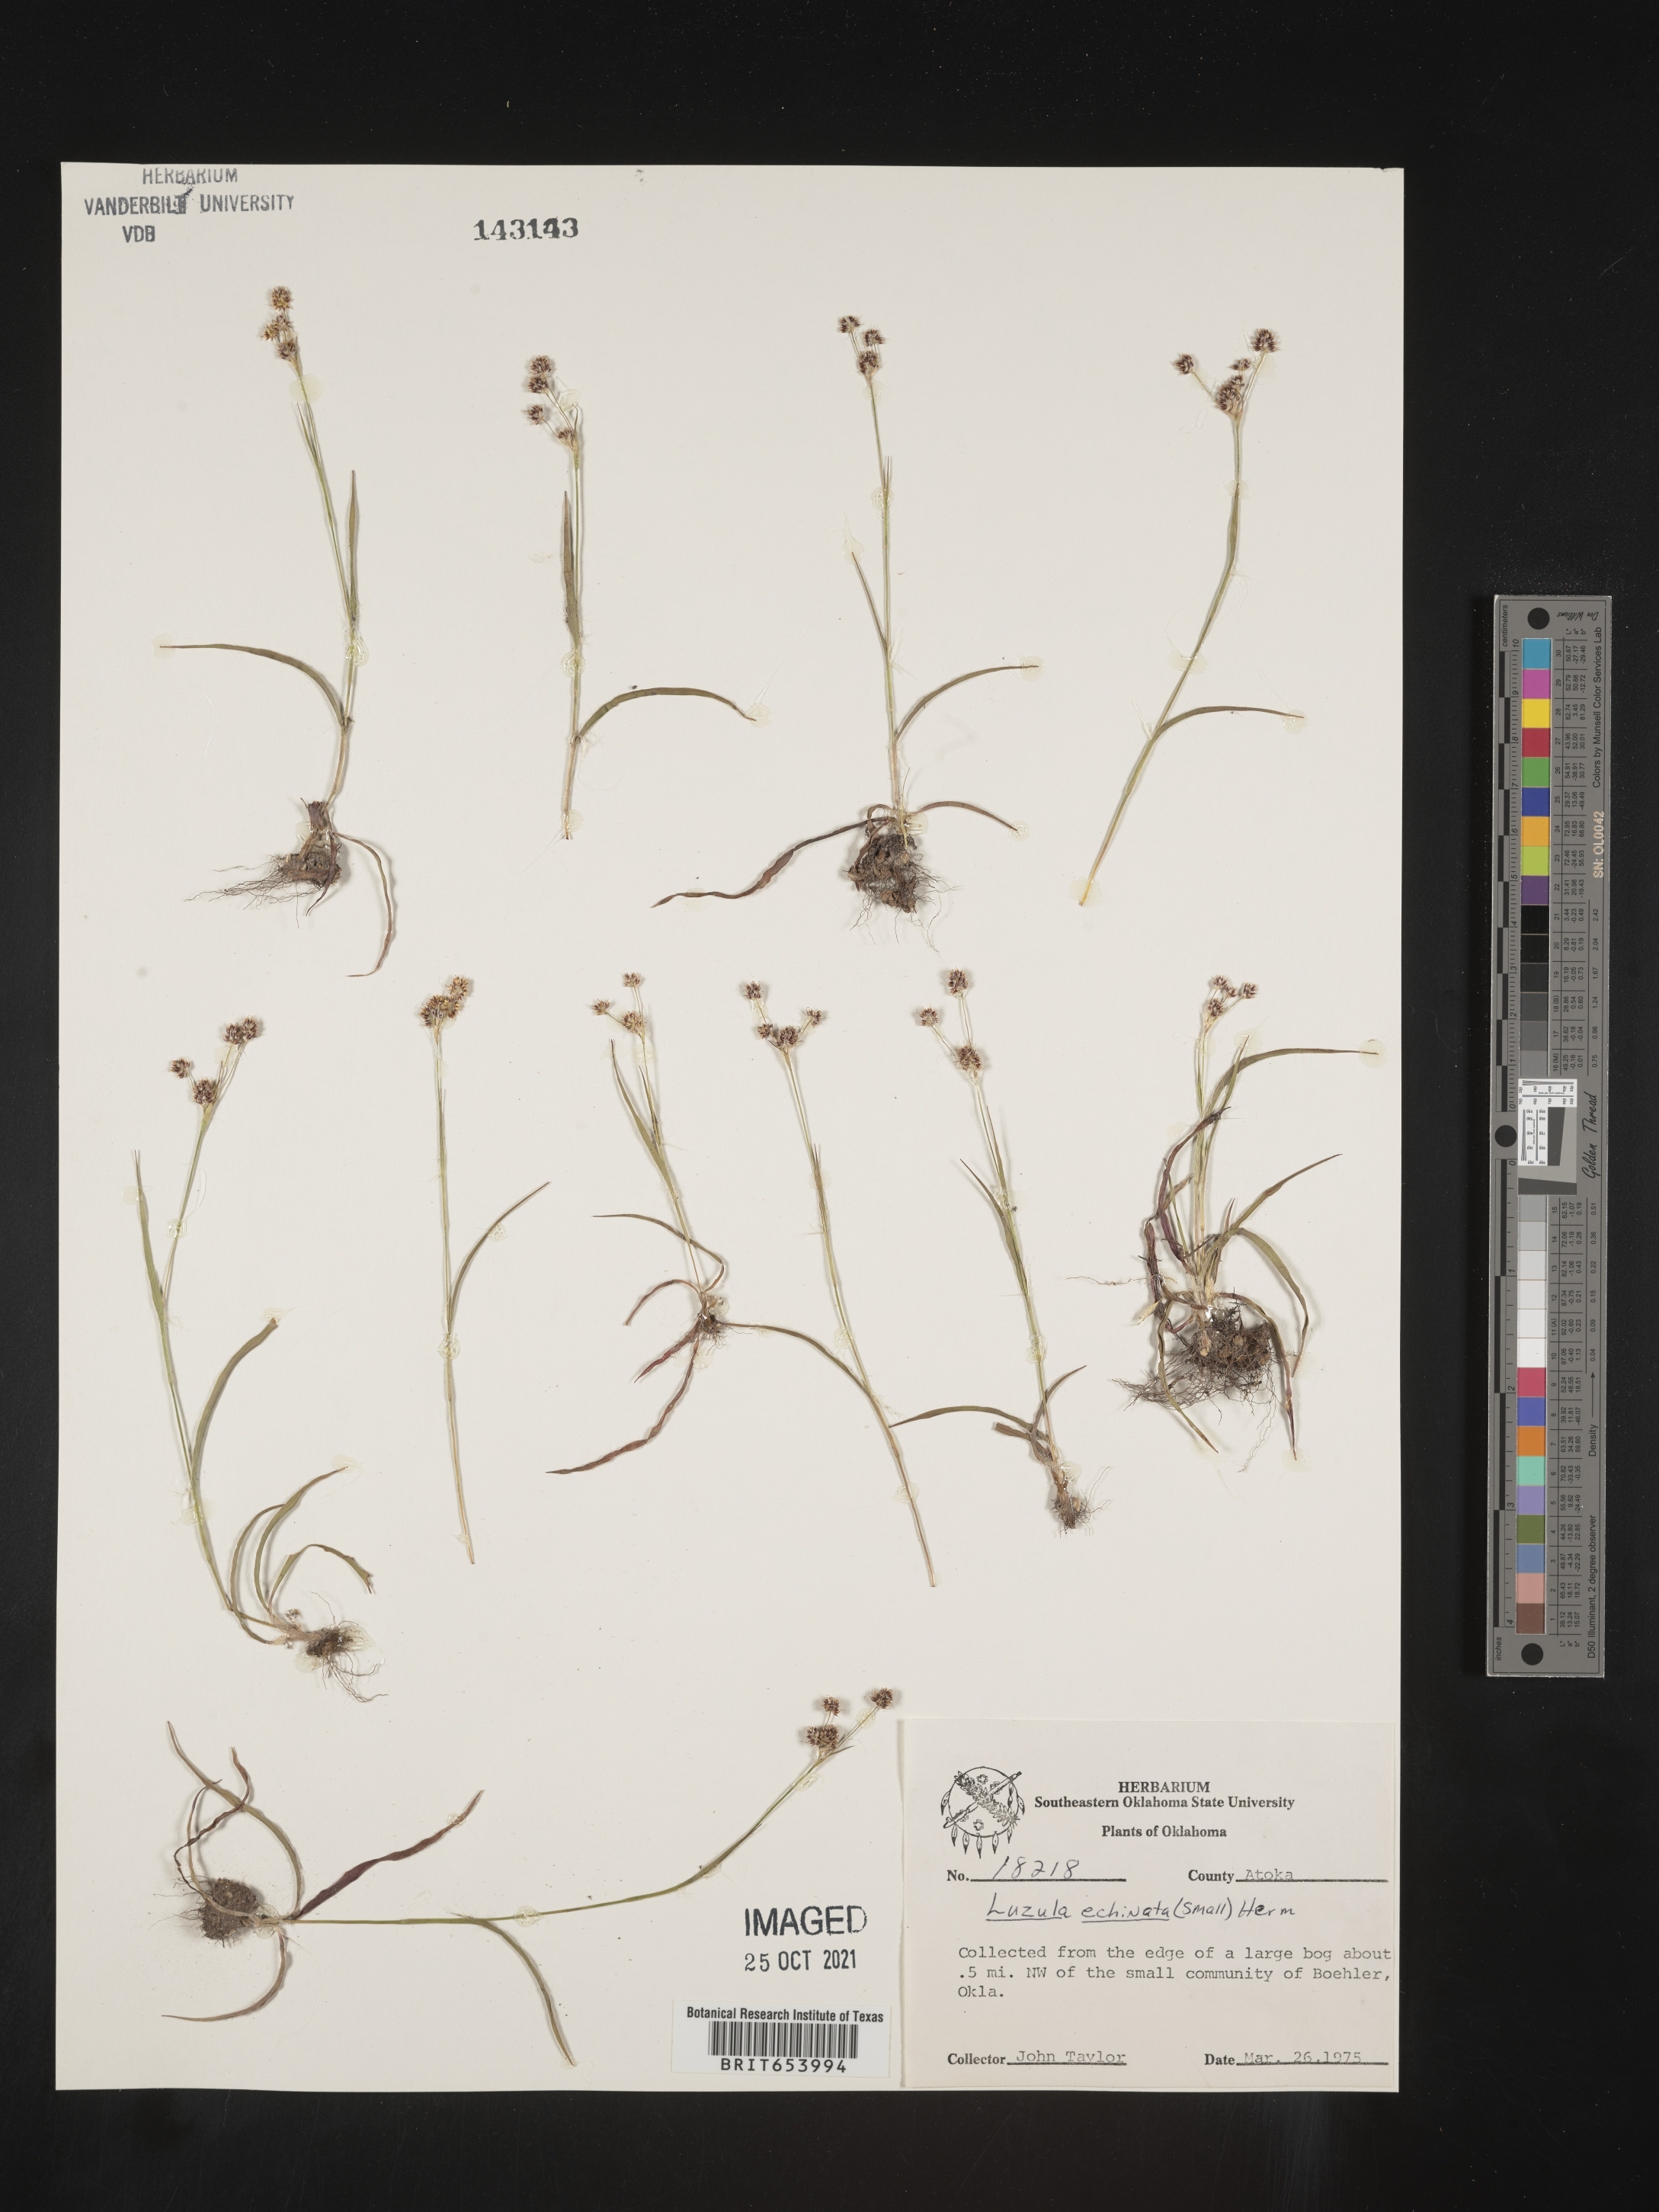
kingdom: Plantae
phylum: Tracheophyta
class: Liliopsida
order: Poales
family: Juncaceae
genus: Luzula
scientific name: Luzula echinata
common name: Hedgehog woodrush
